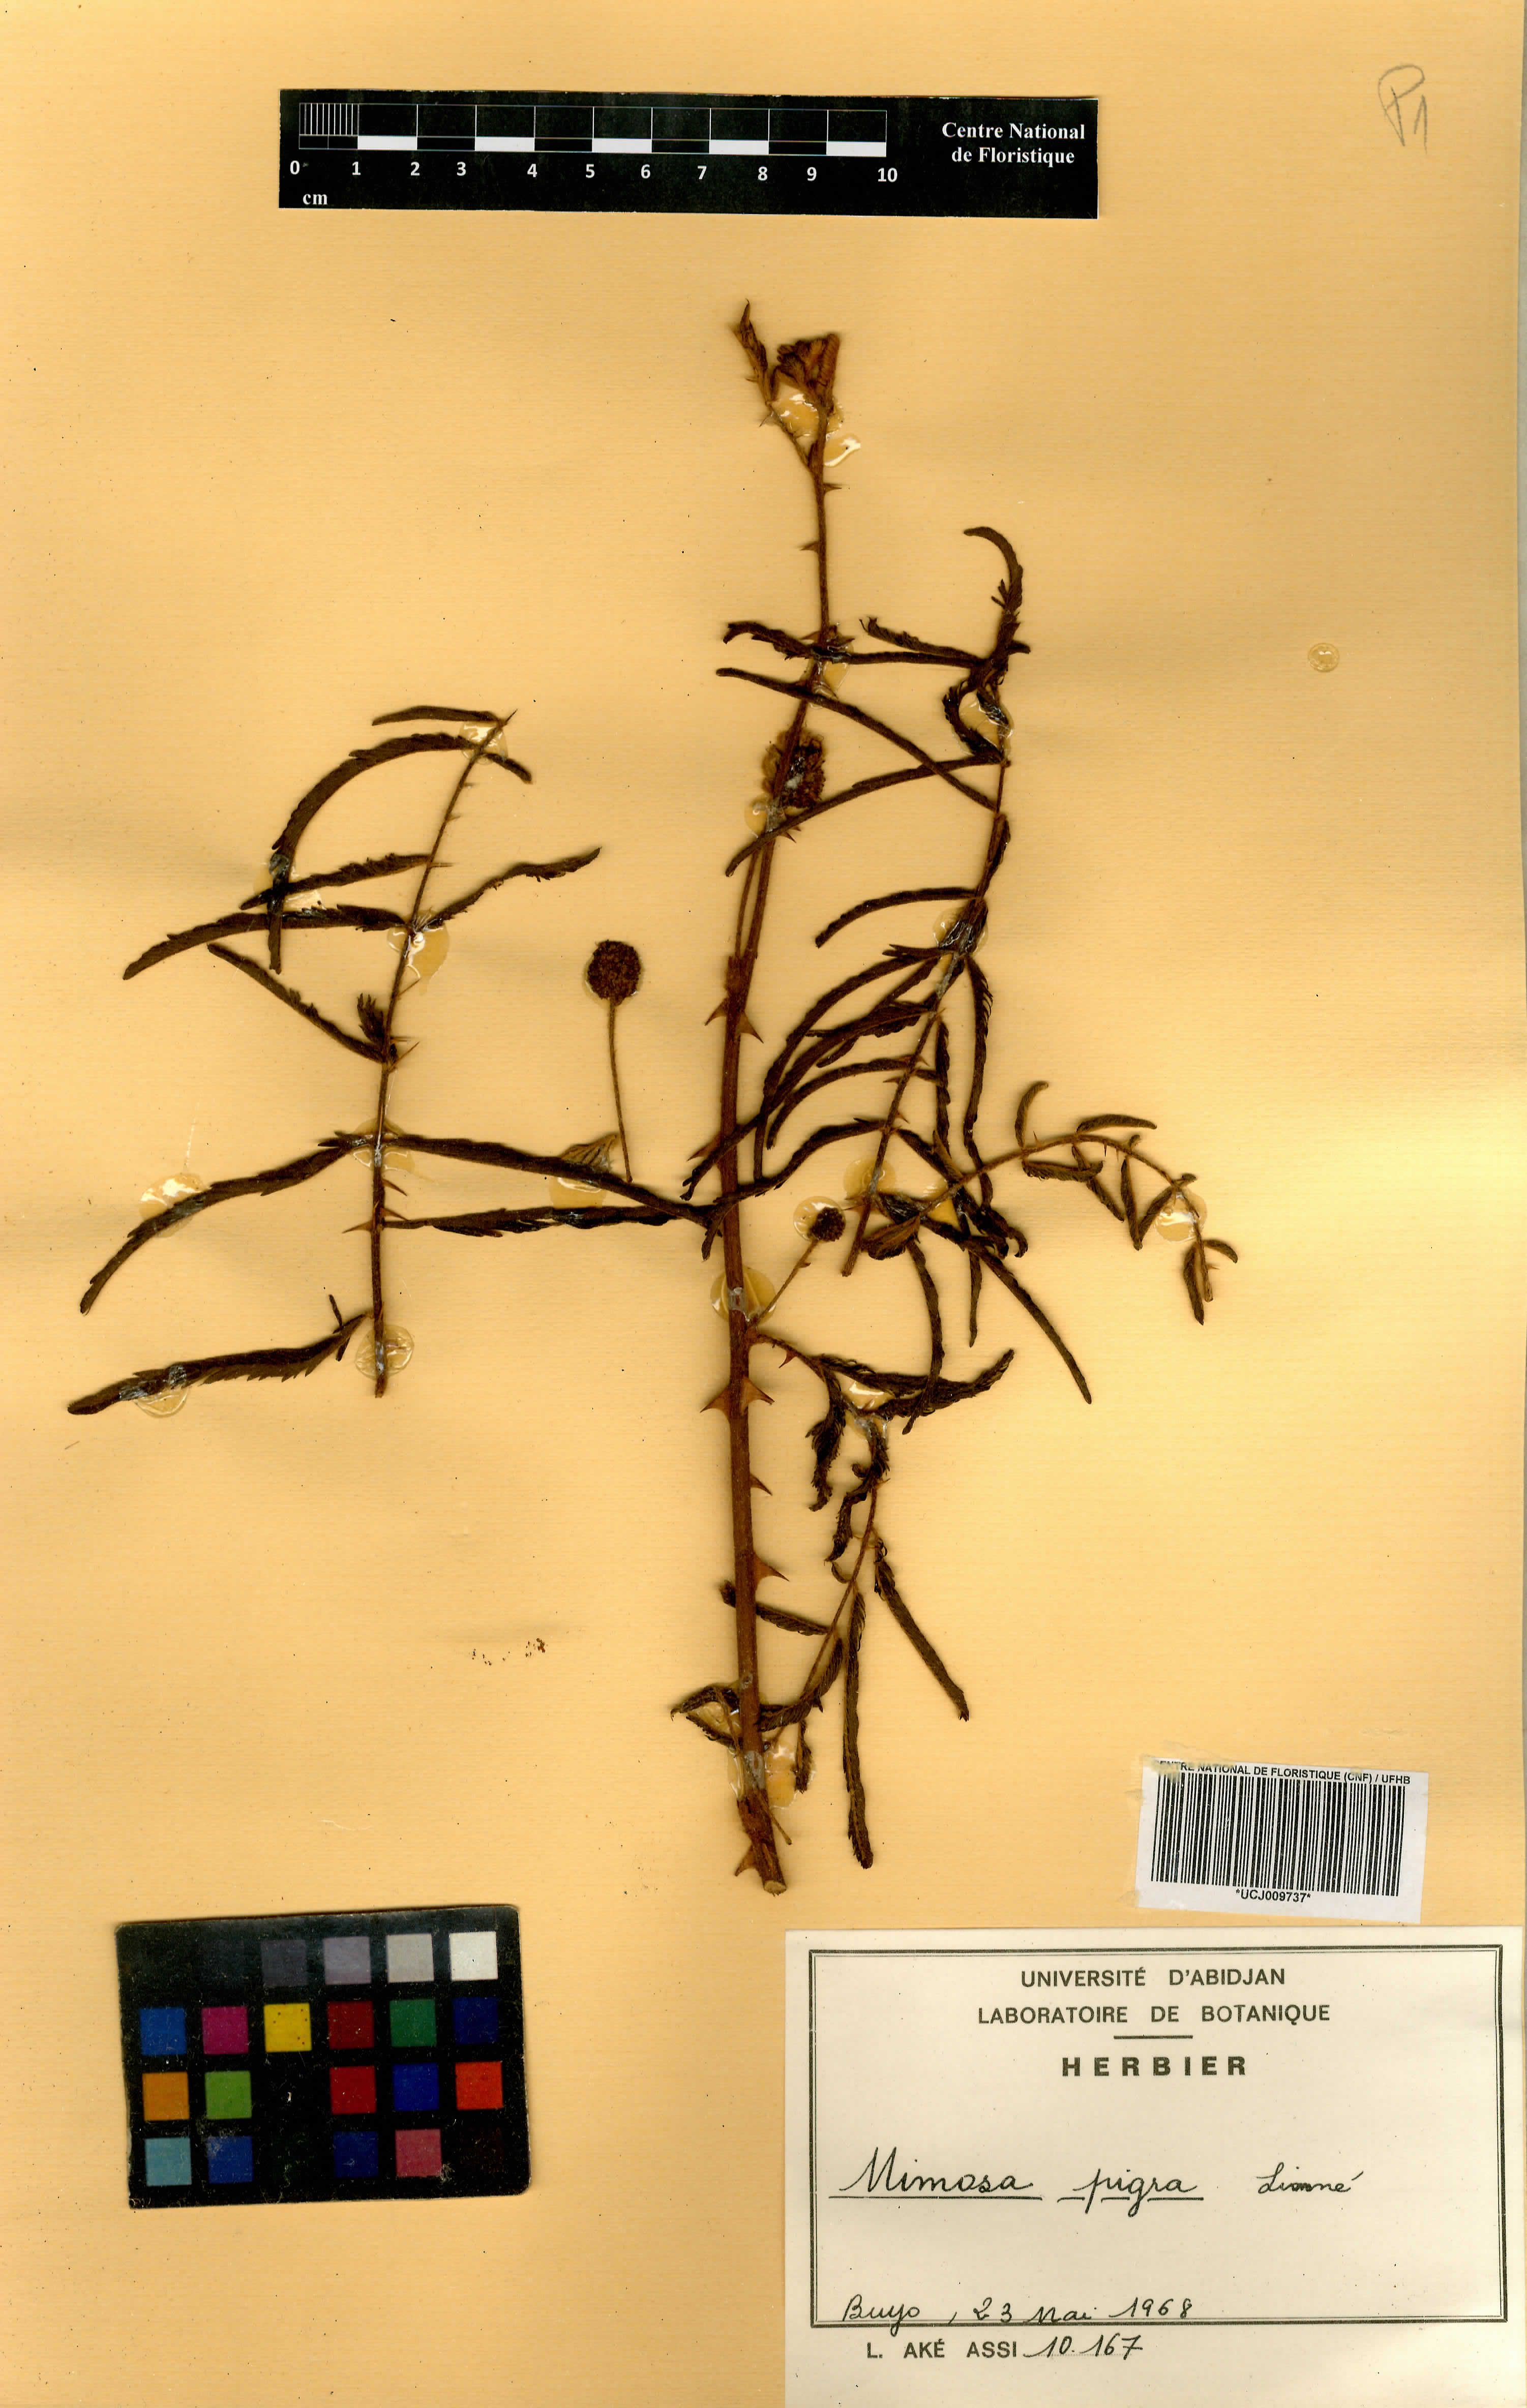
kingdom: Plantae
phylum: Tracheophyta
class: Magnoliopsida
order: Fabales
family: Fabaceae
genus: Mimosa
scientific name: Mimosa pigra
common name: Black mimosa
